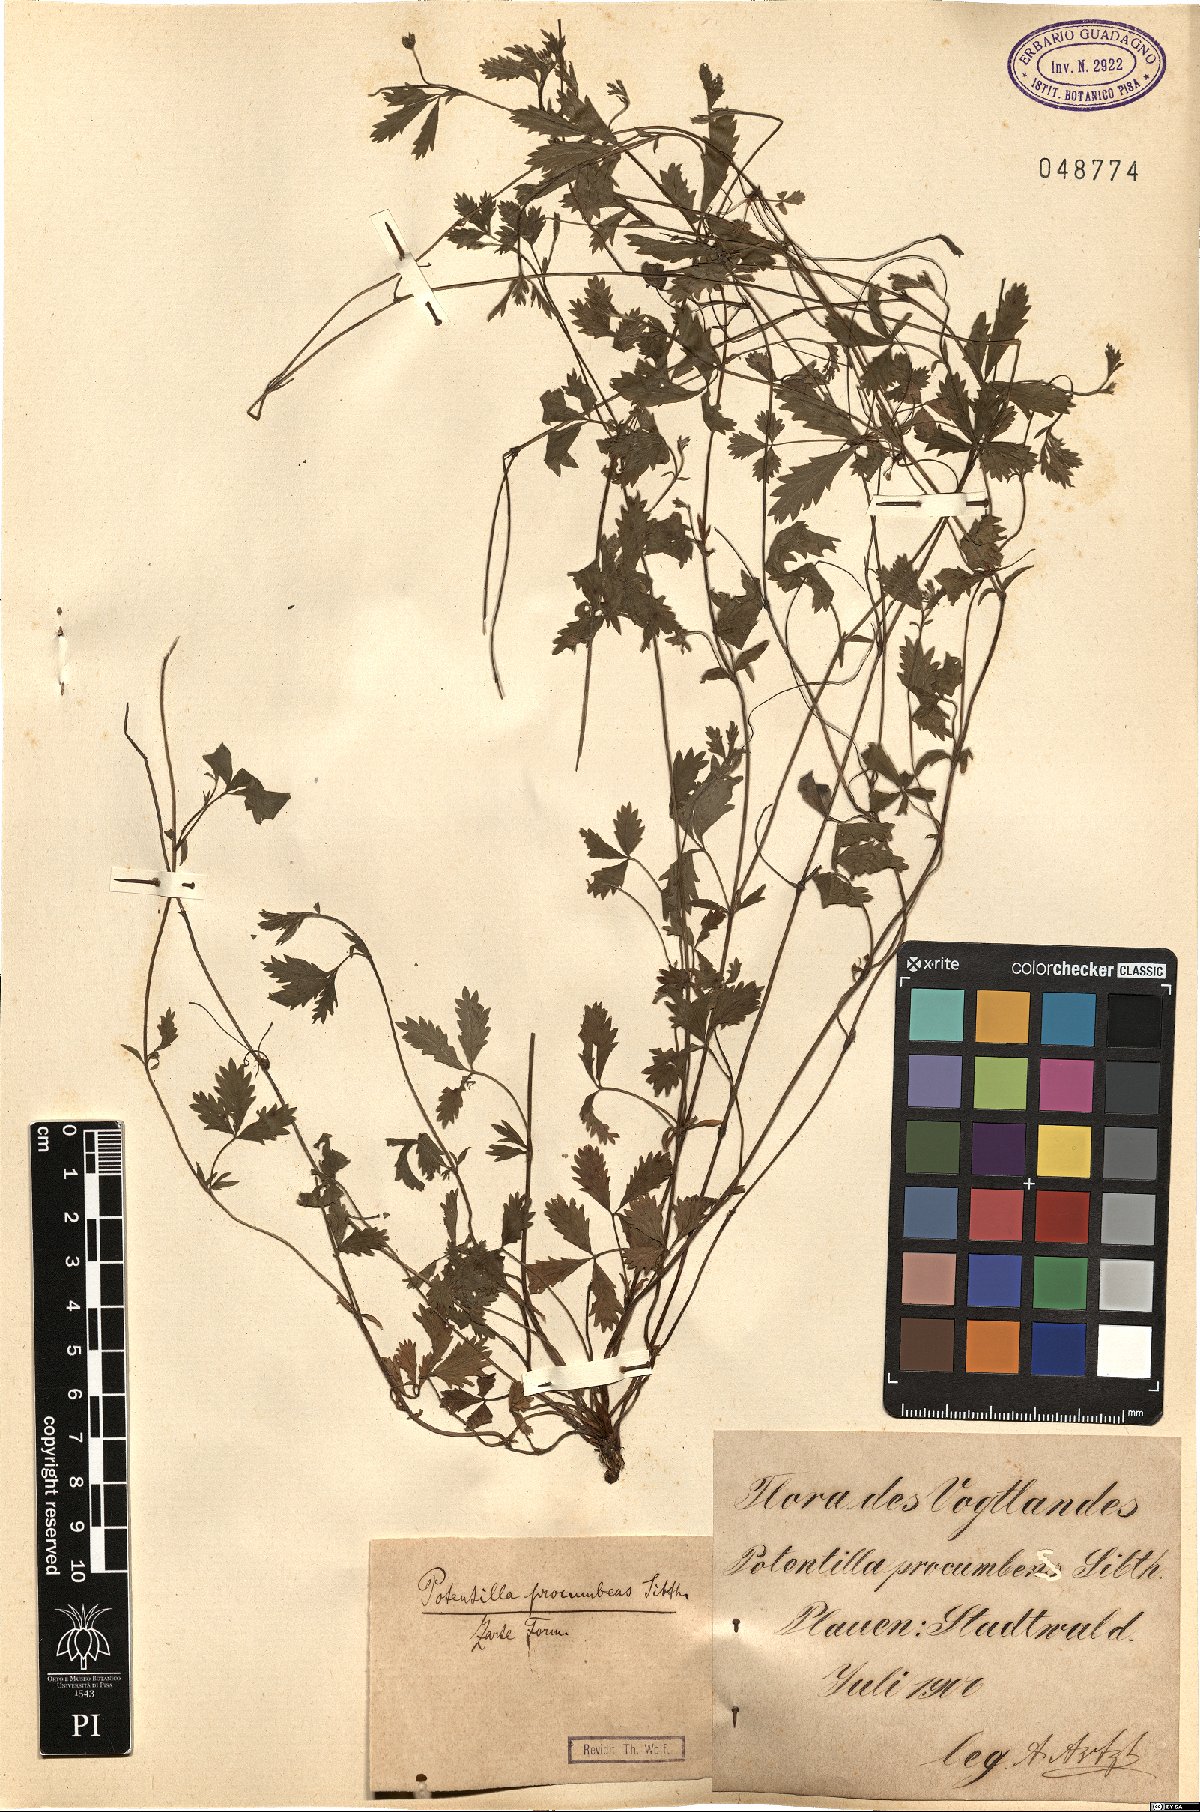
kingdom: Plantae
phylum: Tracheophyta
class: Magnoliopsida
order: Rosales
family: Rosaceae
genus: Potentilla
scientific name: Potentilla
